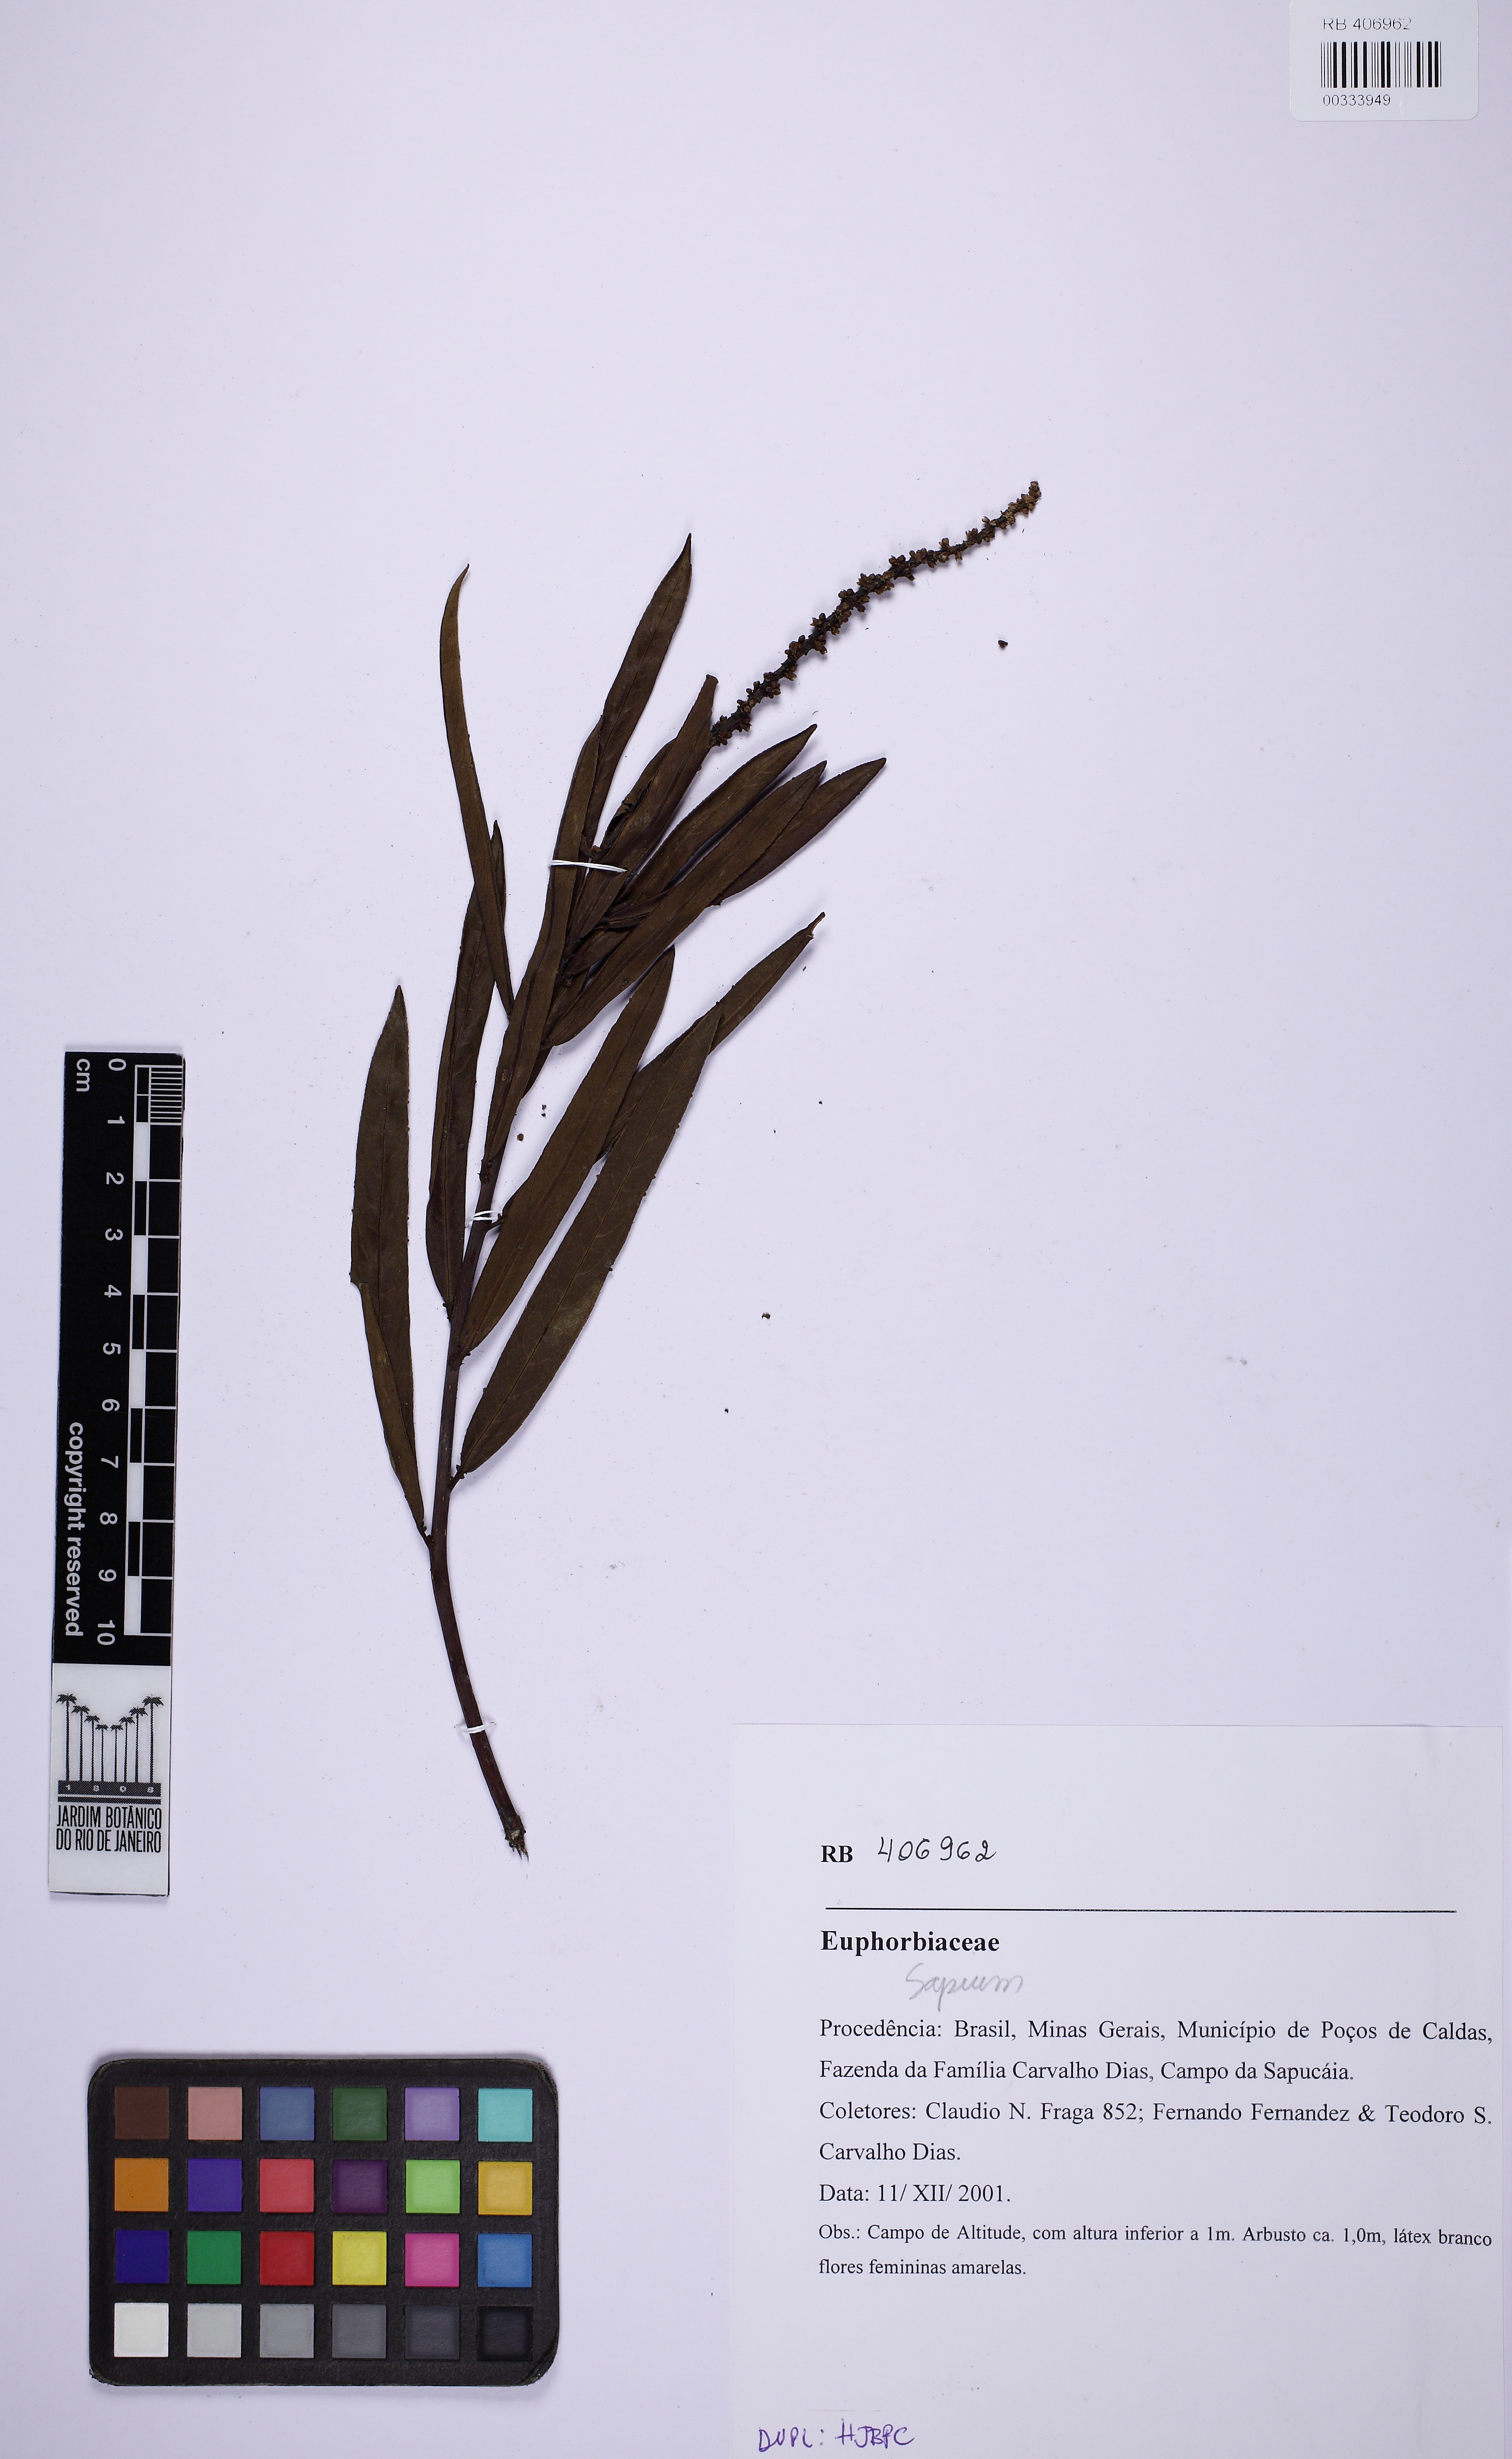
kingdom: Plantae
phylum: Tracheophyta
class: Magnoliopsida
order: Malpighiales
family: Euphorbiaceae
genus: Sapium
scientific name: Sapium
